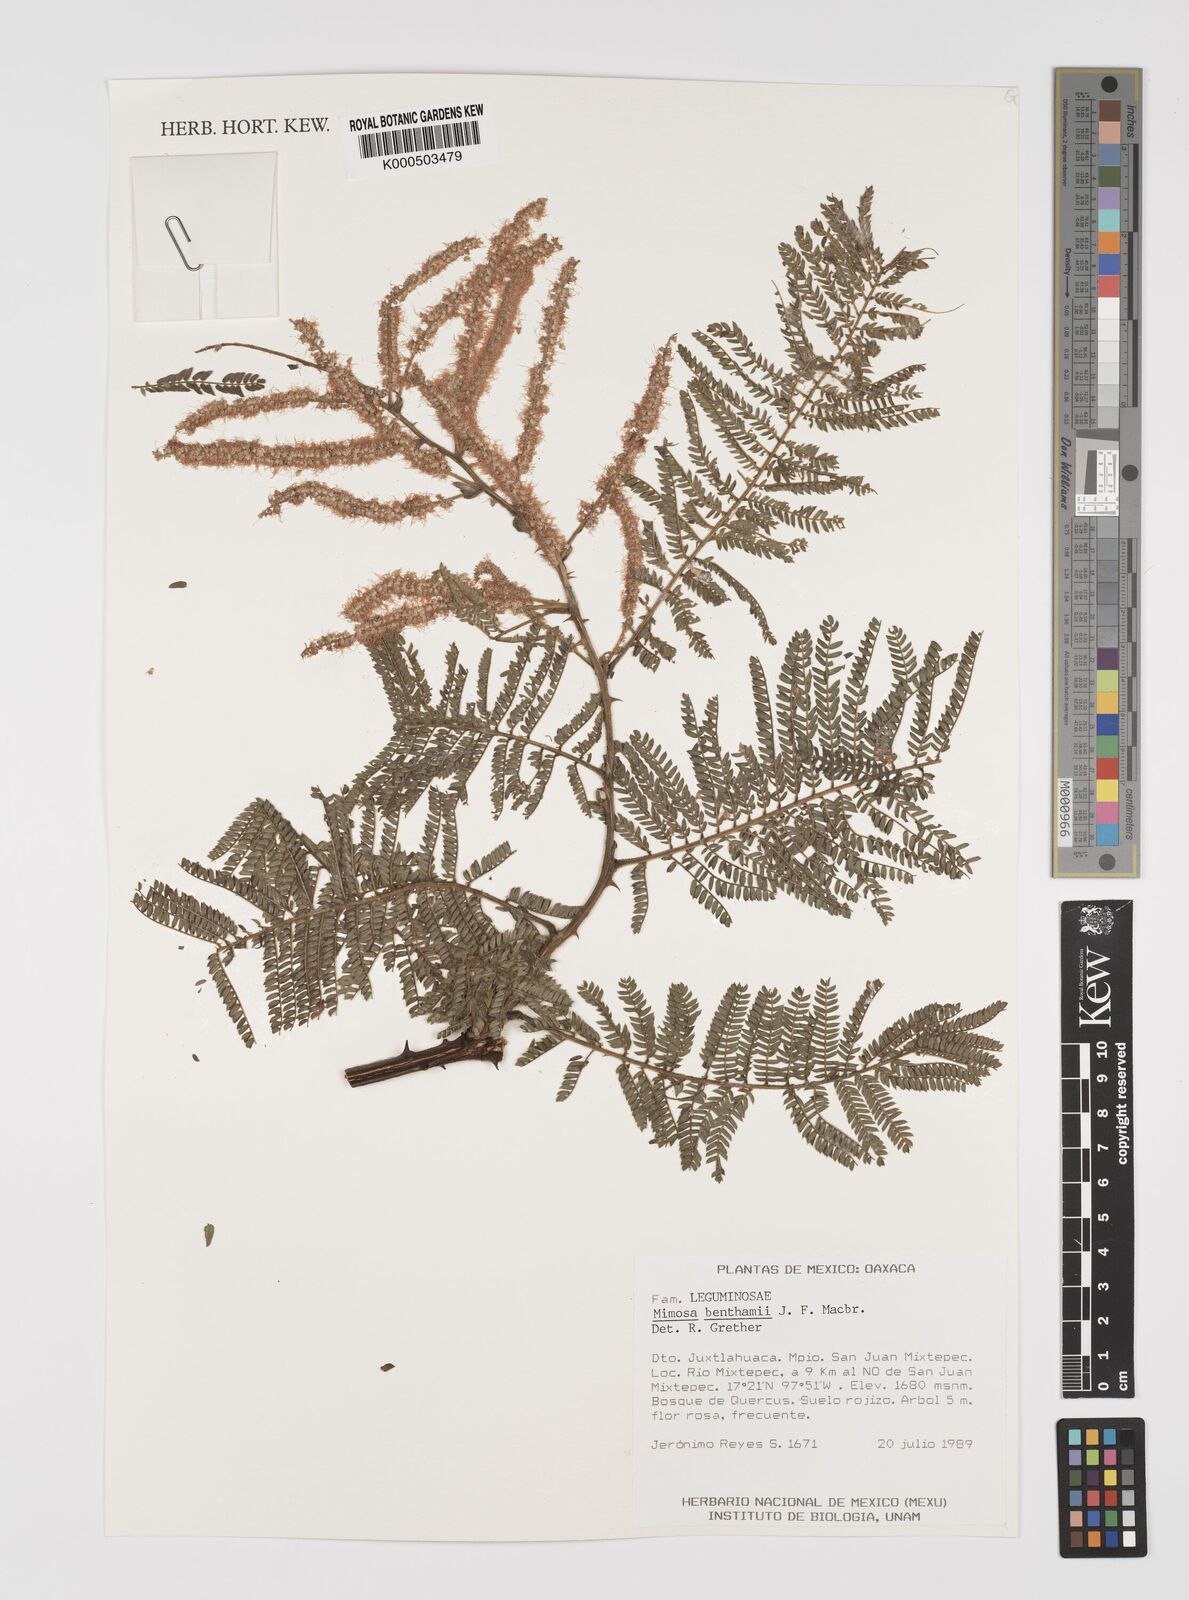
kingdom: Plantae
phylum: Tracheophyta
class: Magnoliopsida
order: Fabales
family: Fabaceae
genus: Mimosa
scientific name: Mimosa benthamii
